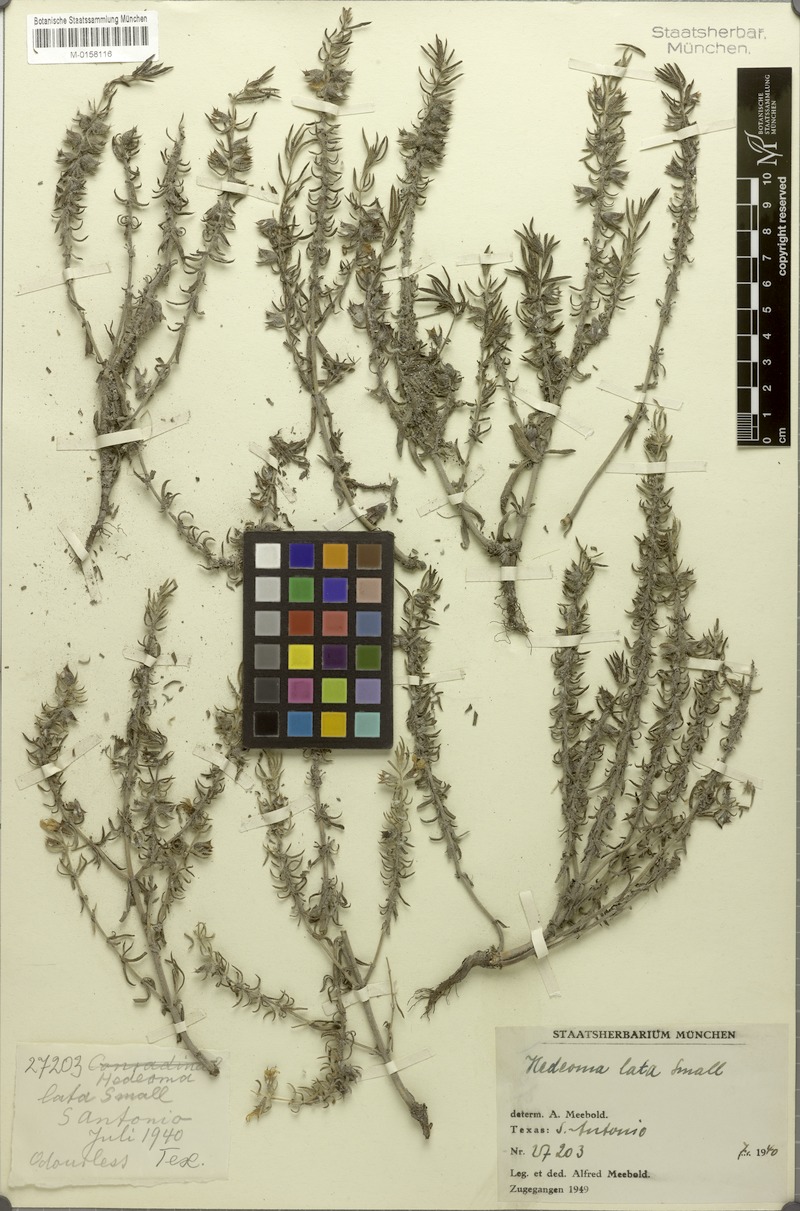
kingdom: Plantae
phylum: Tracheophyta
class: Magnoliopsida
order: Lamiales
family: Lamiaceae
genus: Hedeoma
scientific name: Hedeoma reverchonii
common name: Reverchon's false penny-royal
